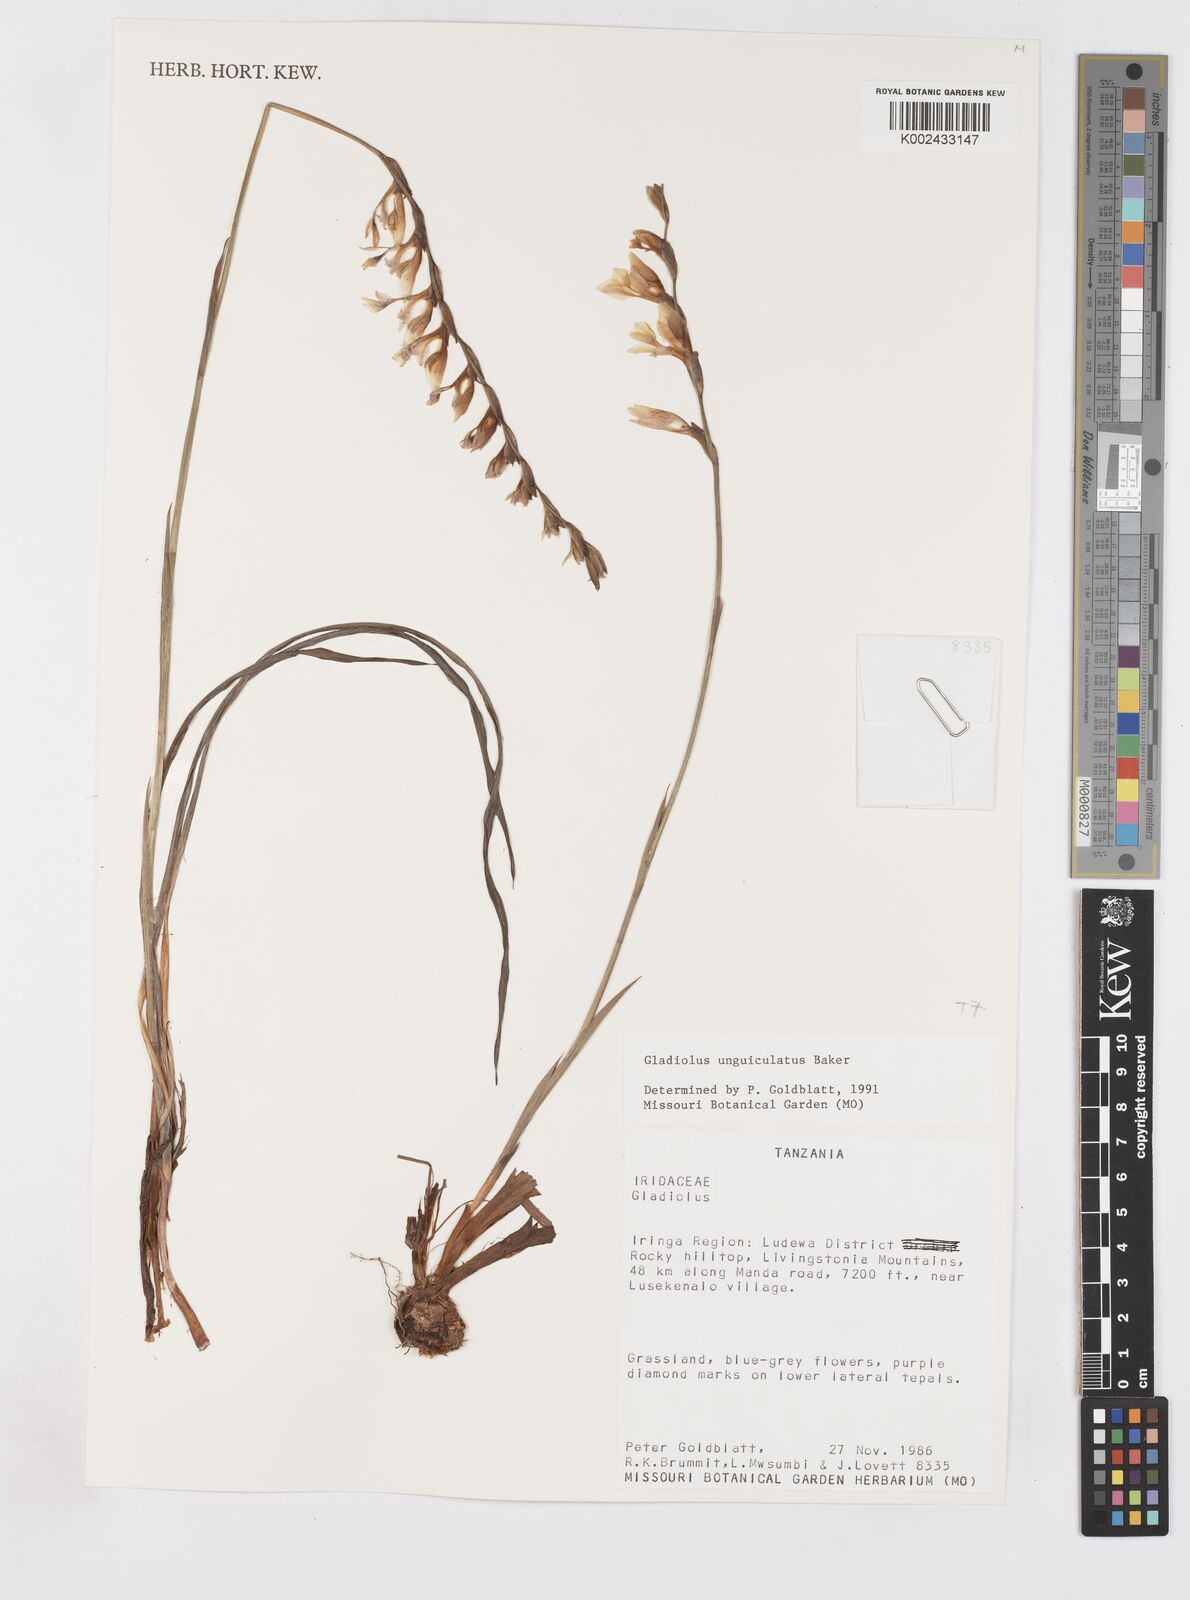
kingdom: Plantae
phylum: Tracheophyta
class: Liliopsida
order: Asparagales
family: Iridaceae
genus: Gladiolus
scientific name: Gladiolus unguiculatus
